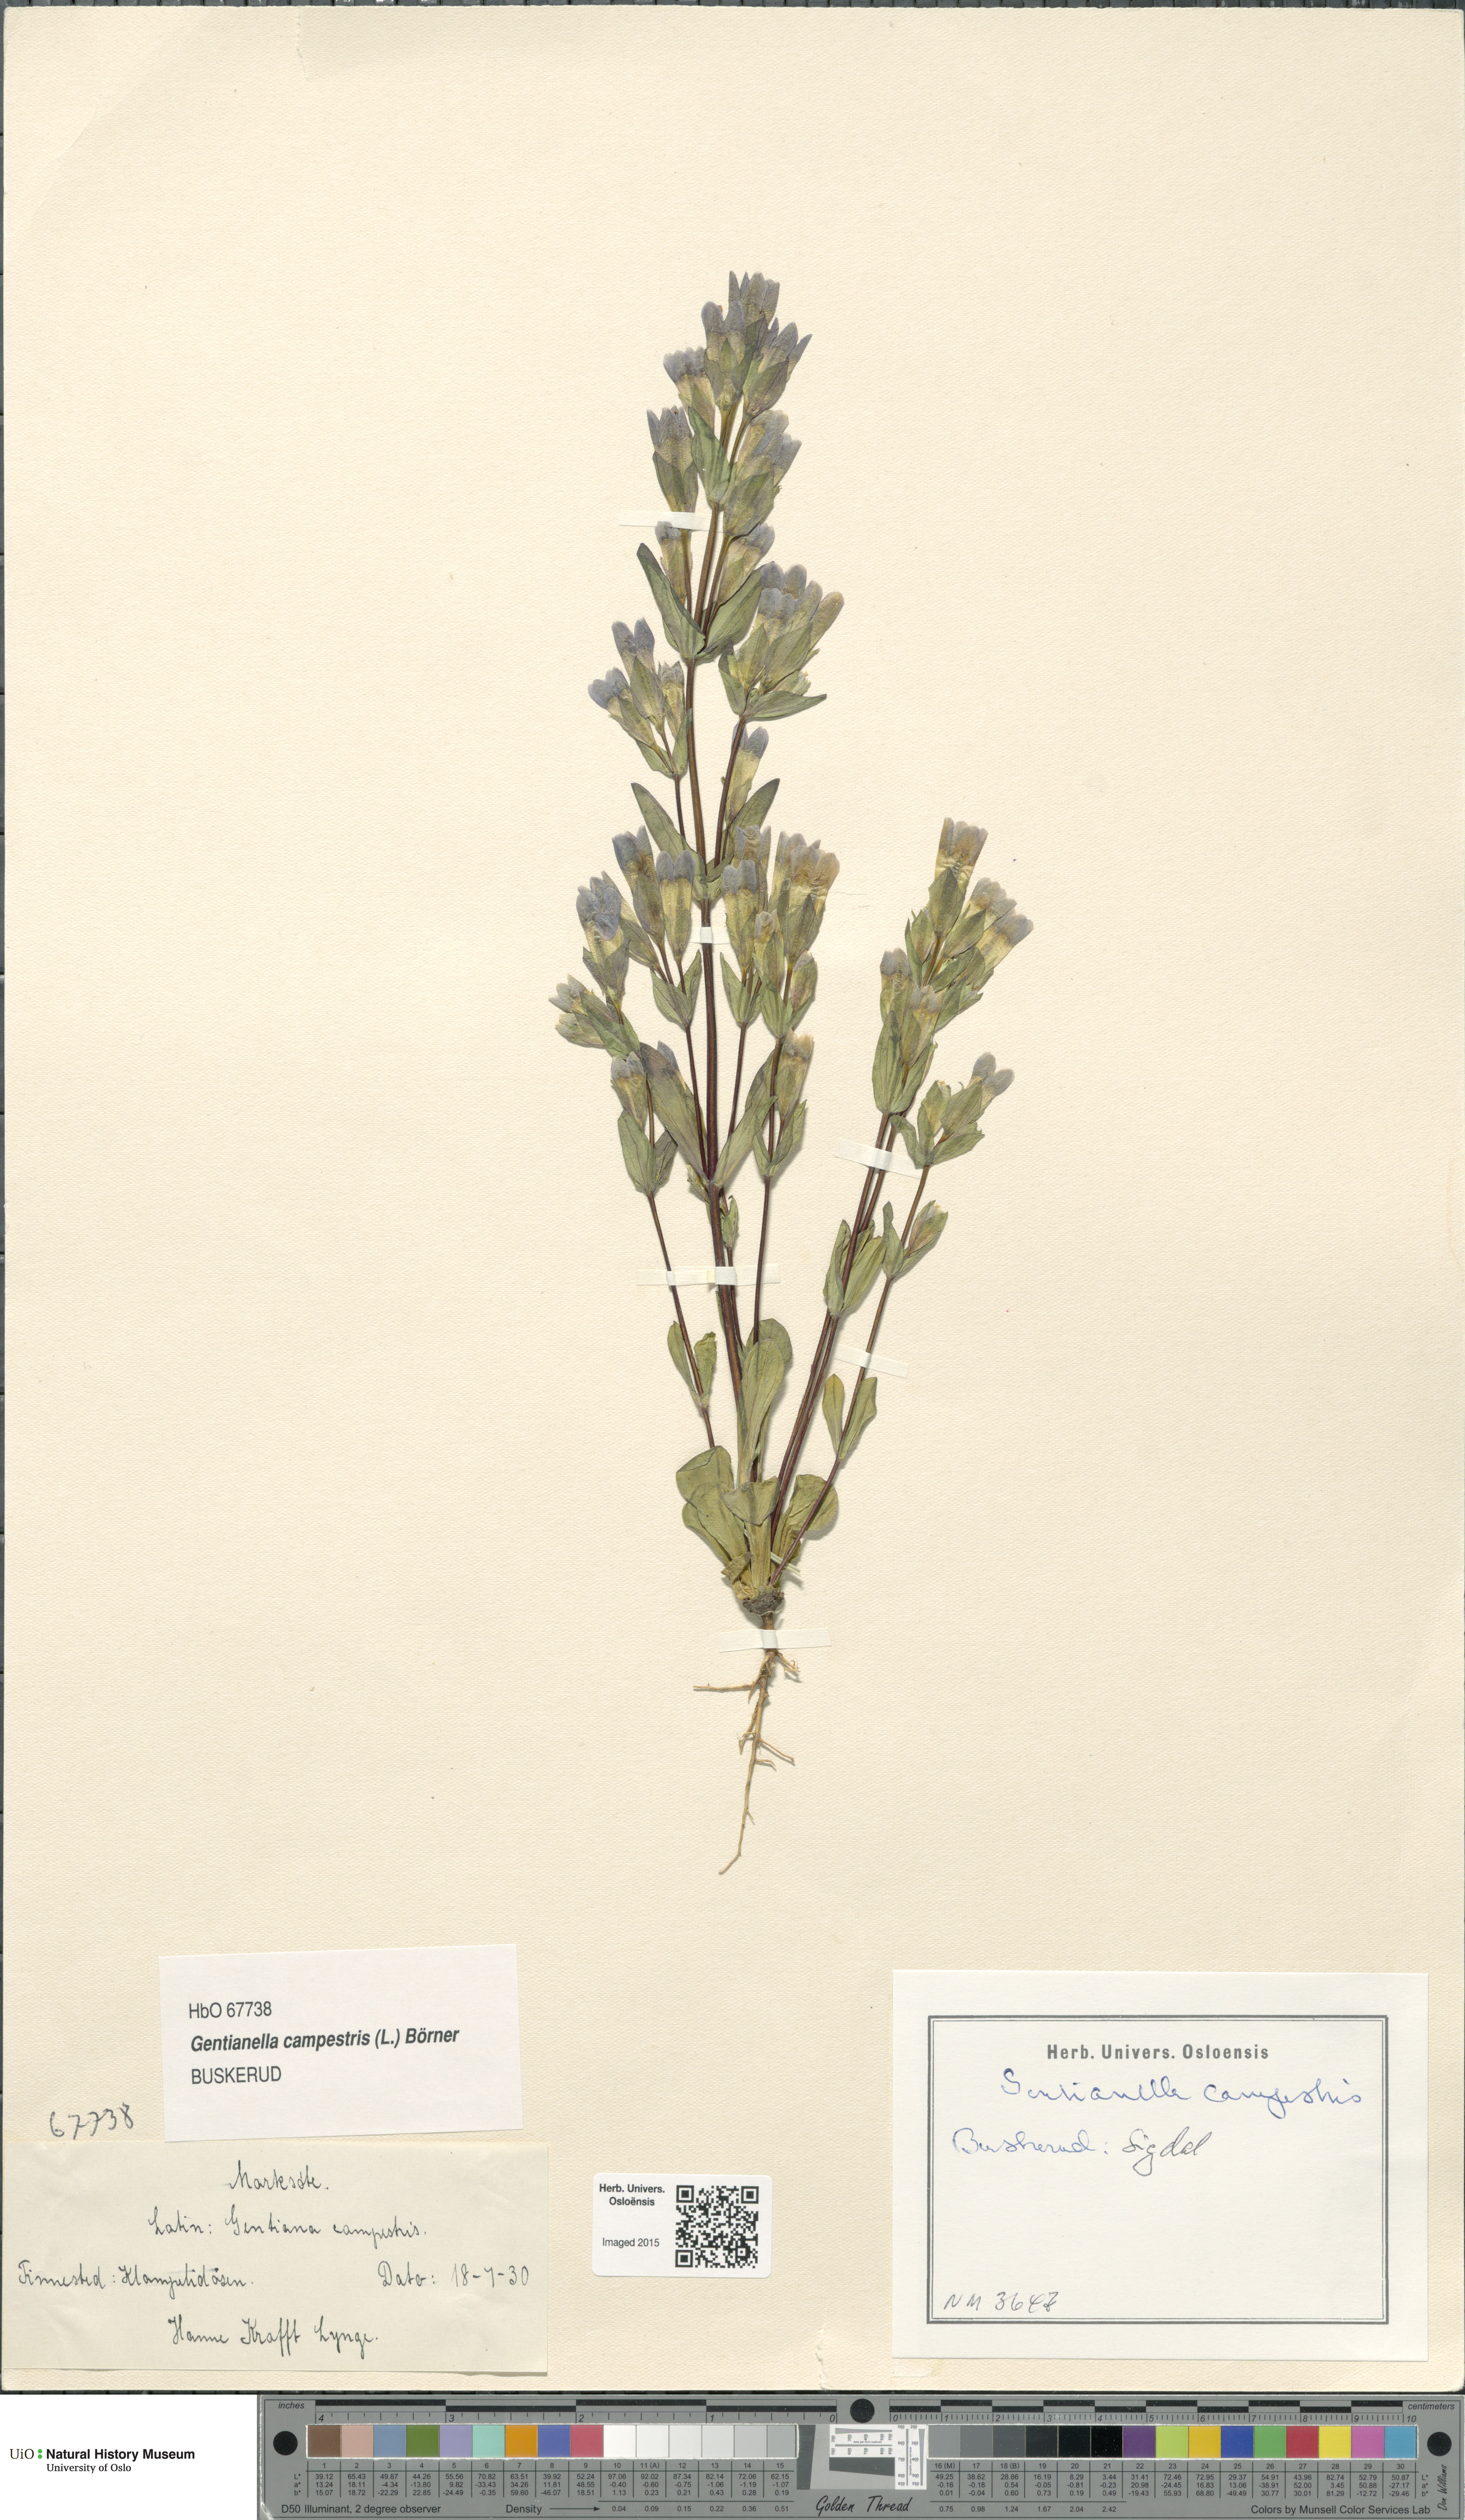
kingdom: Plantae
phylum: Tracheophyta
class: Magnoliopsida
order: Gentianales
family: Gentianaceae
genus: Gentianella
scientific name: Gentianella campestris
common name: Field gentian
